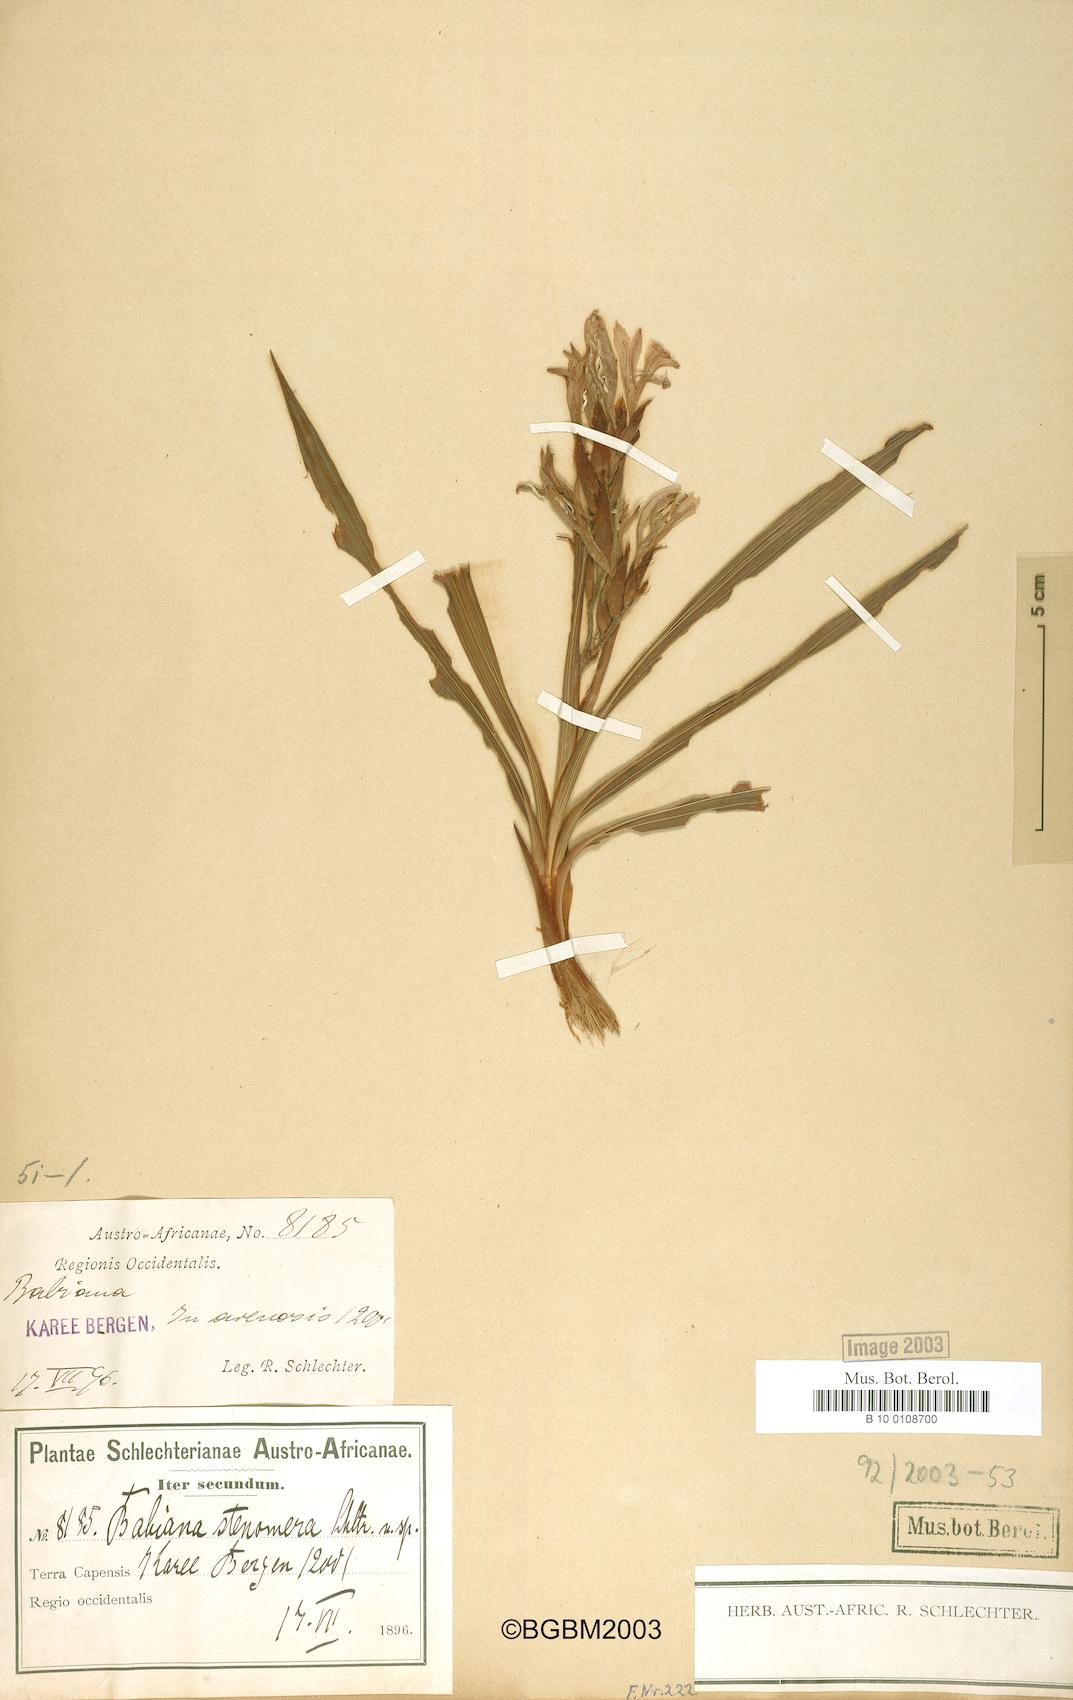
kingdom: Plantae
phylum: Tracheophyta
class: Liliopsida
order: Asparagales
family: Iridaceae
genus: Babiana
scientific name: Babiana stenomera
